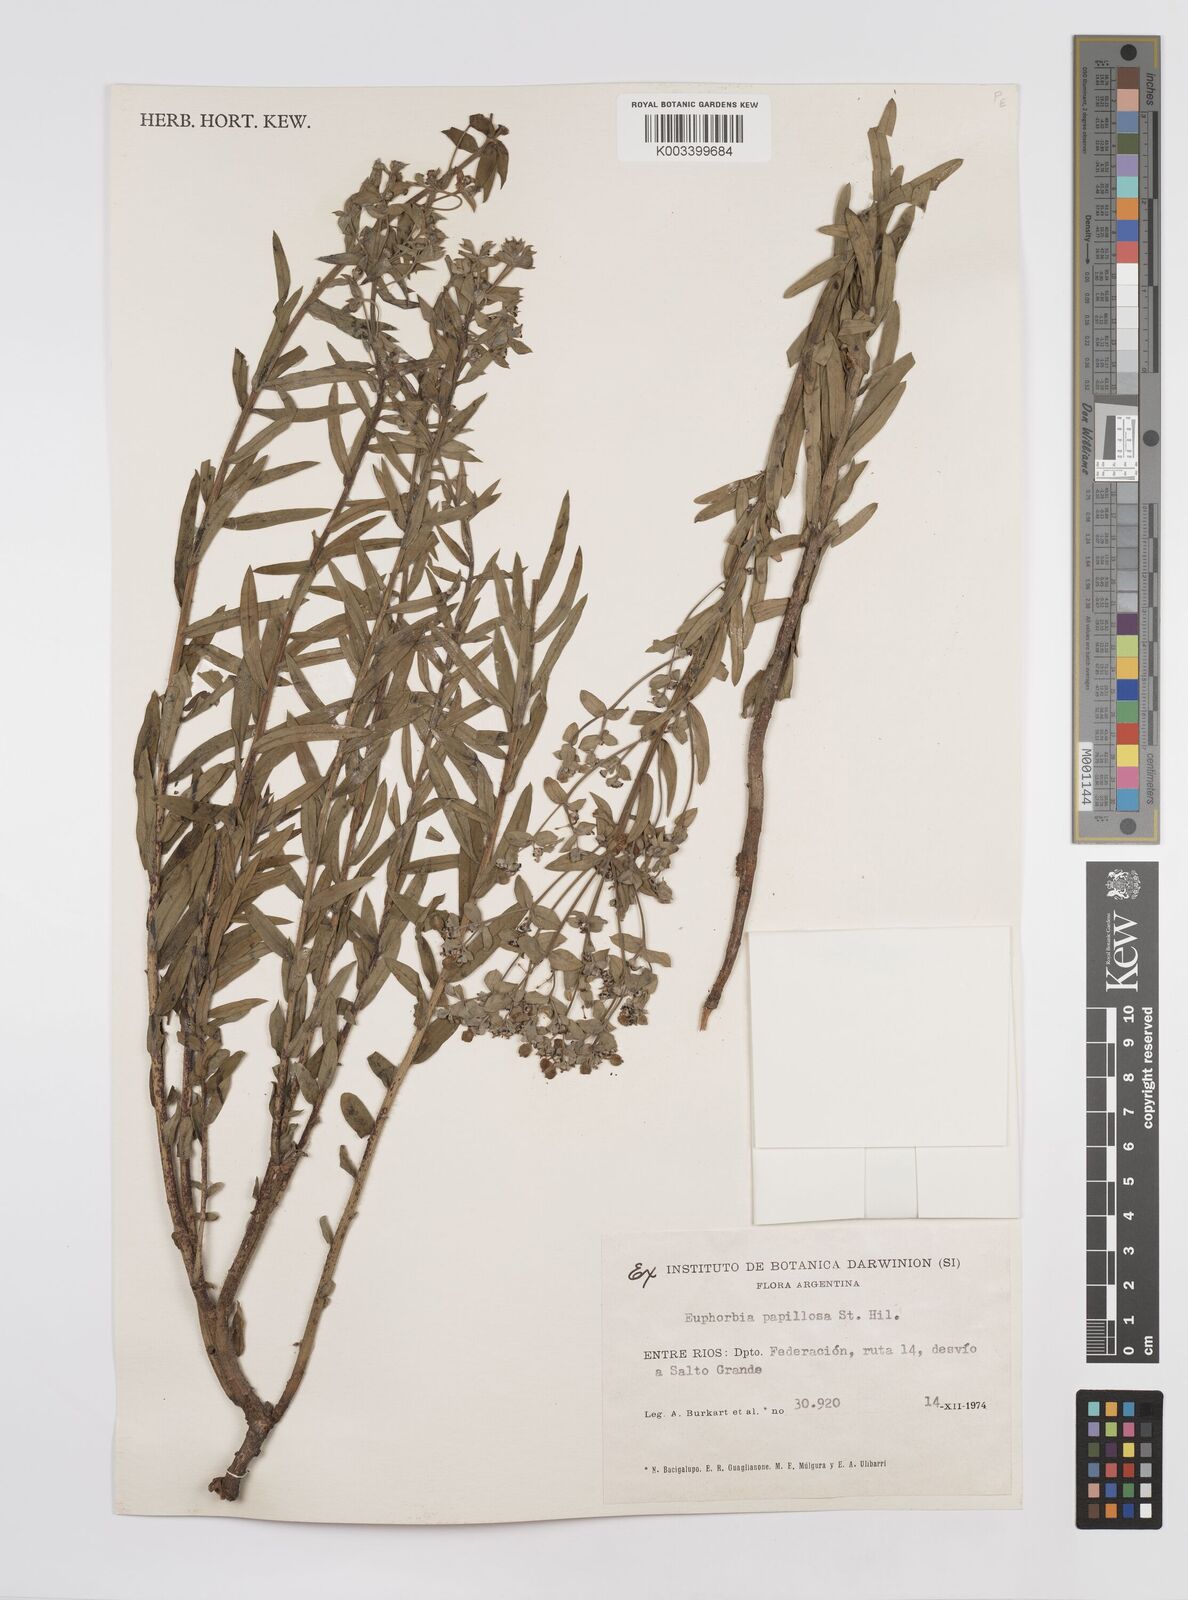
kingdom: Plantae
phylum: Tracheophyta
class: Magnoliopsida
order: Malpighiales
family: Euphorbiaceae
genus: Euphorbia
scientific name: Euphorbia
